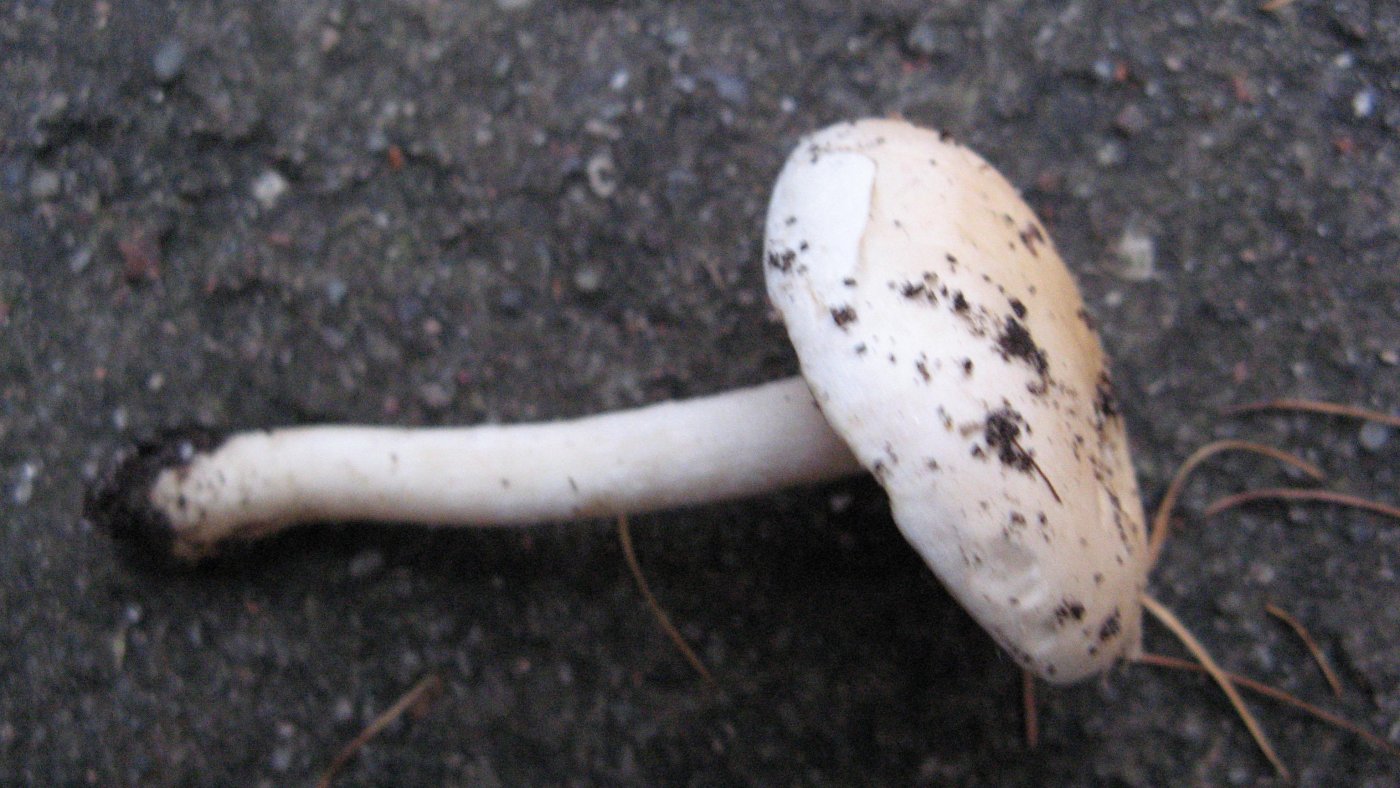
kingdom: Fungi
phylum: Basidiomycota
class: Agaricomycetes
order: Agaricales
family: Hymenogastraceae
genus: Hebeloma
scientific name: Hebeloma album
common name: skør tåreblad
